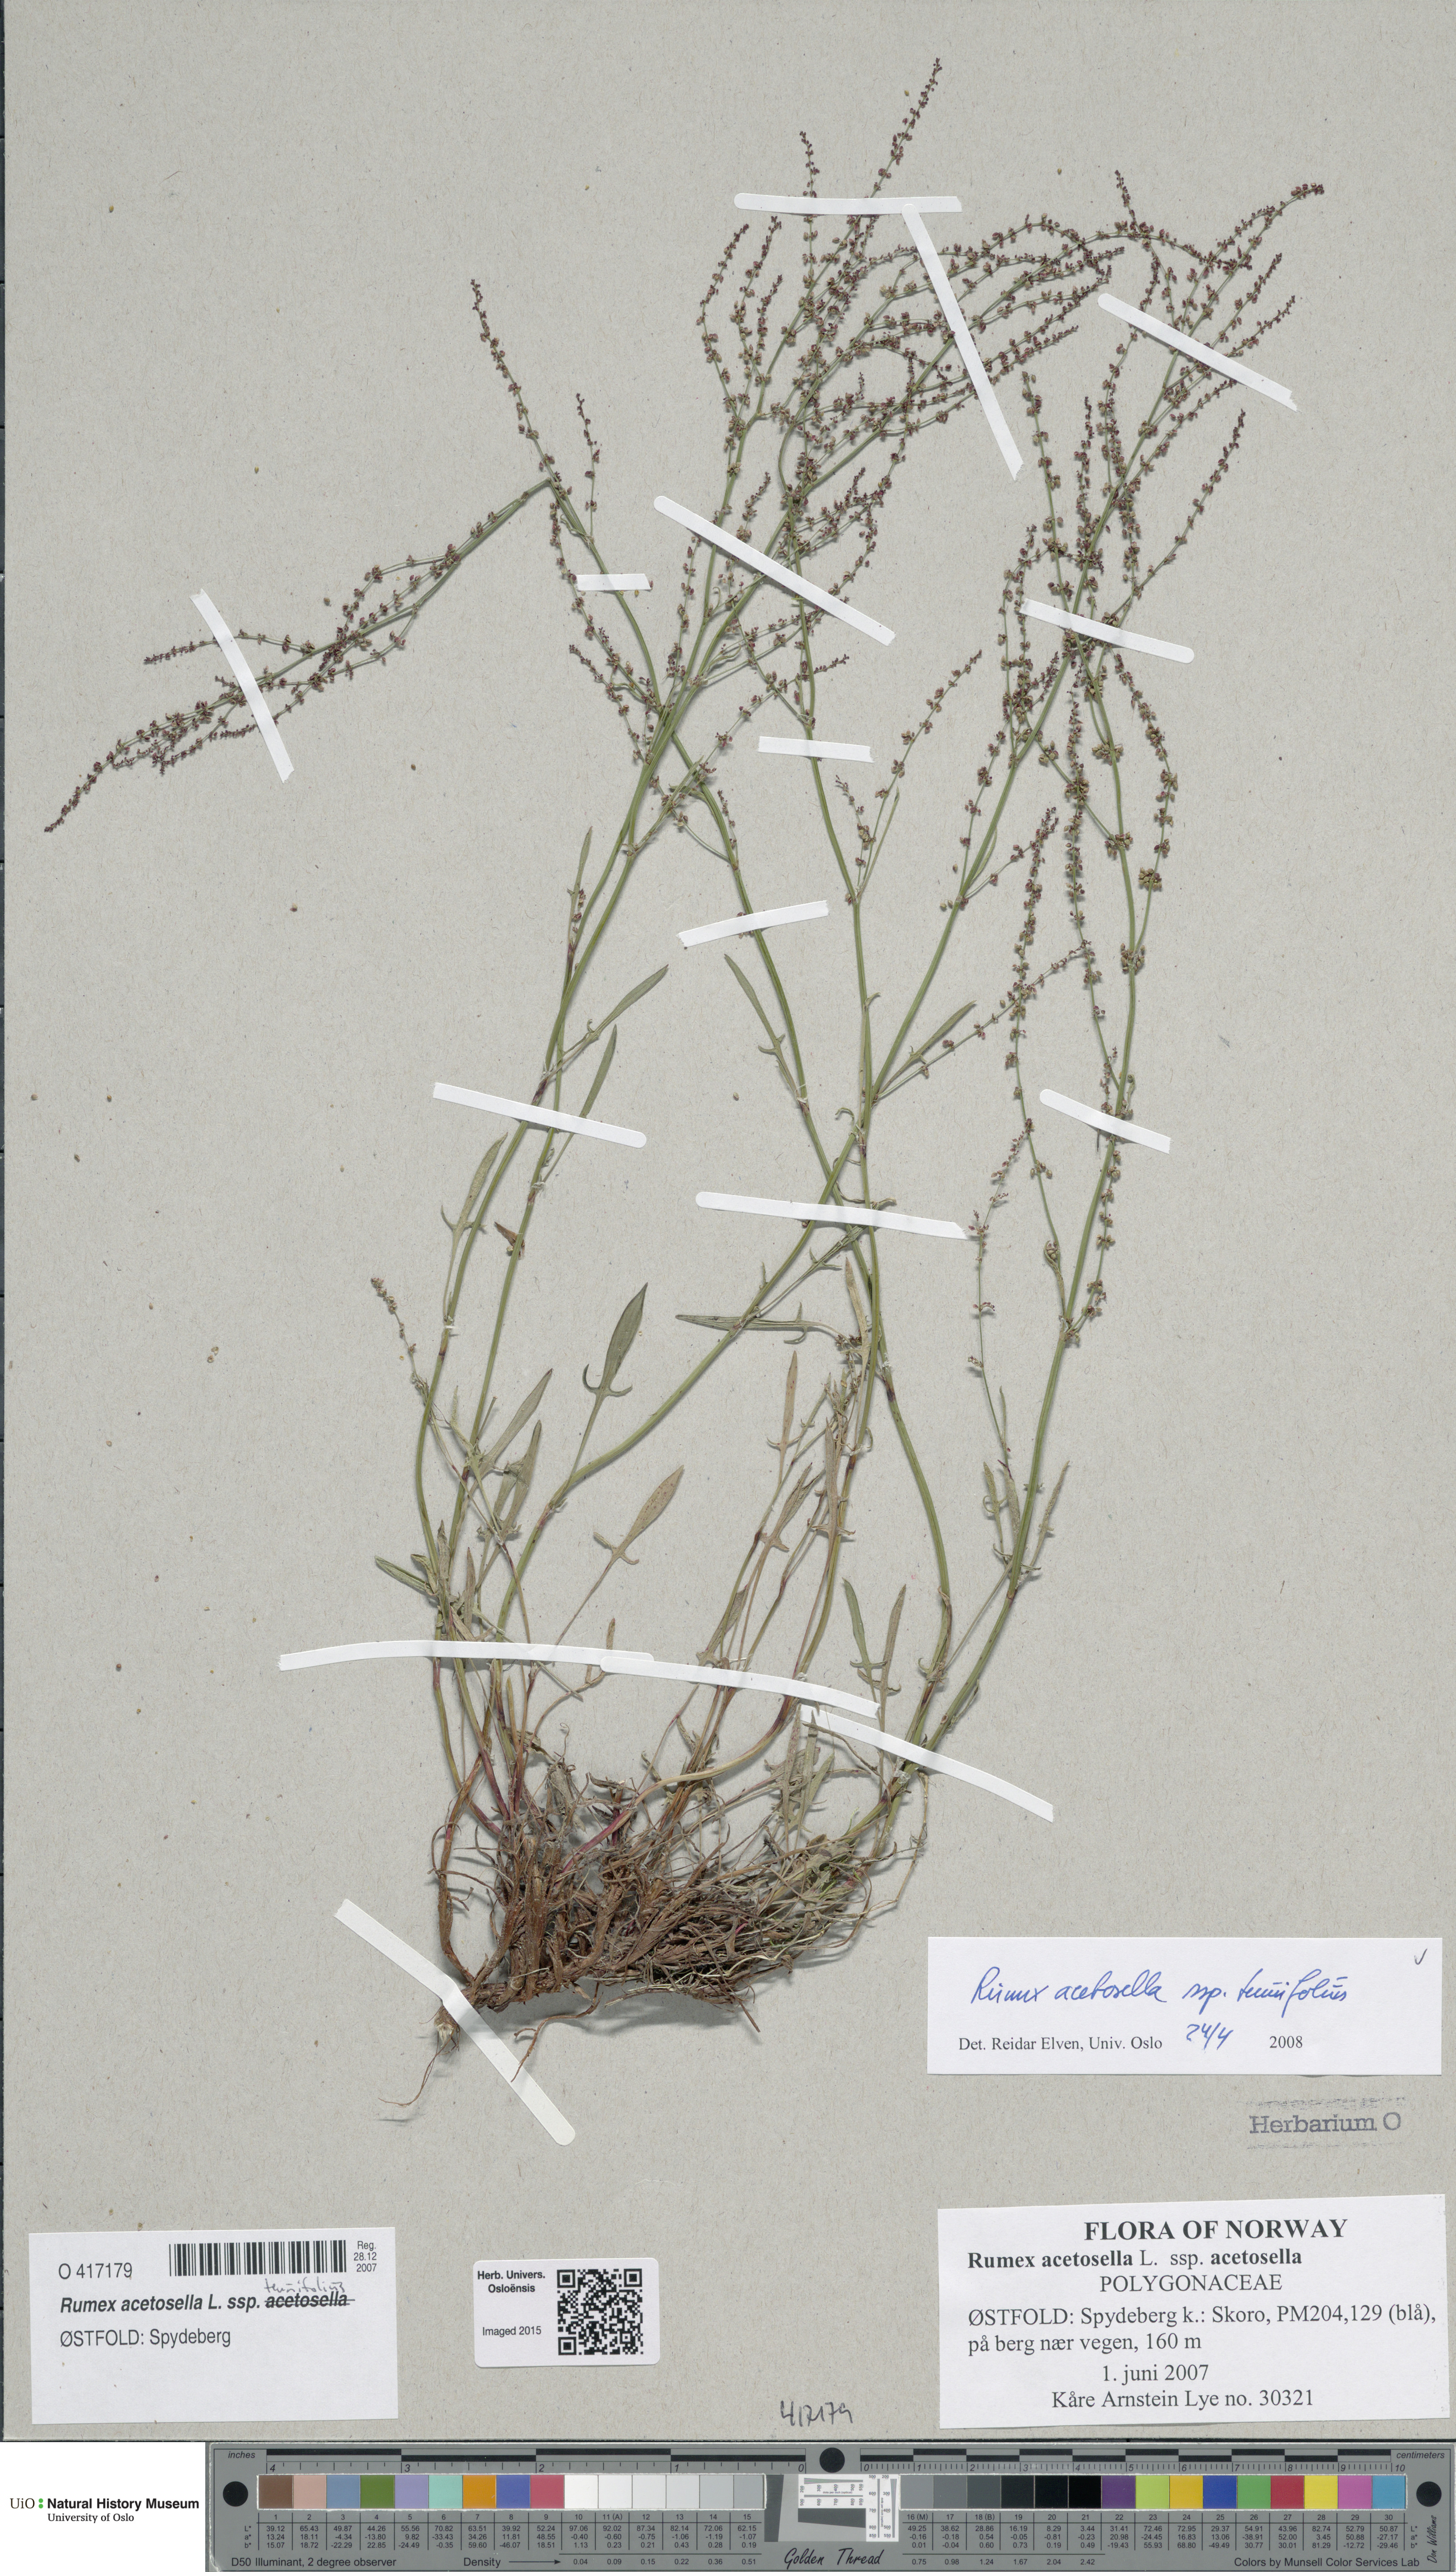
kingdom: Plantae
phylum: Tracheophyta
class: Magnoliopsida
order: Caryophyllales
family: Polygonaceae
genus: Rumex
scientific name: Rumex acetosella
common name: Common sheep sorrel
